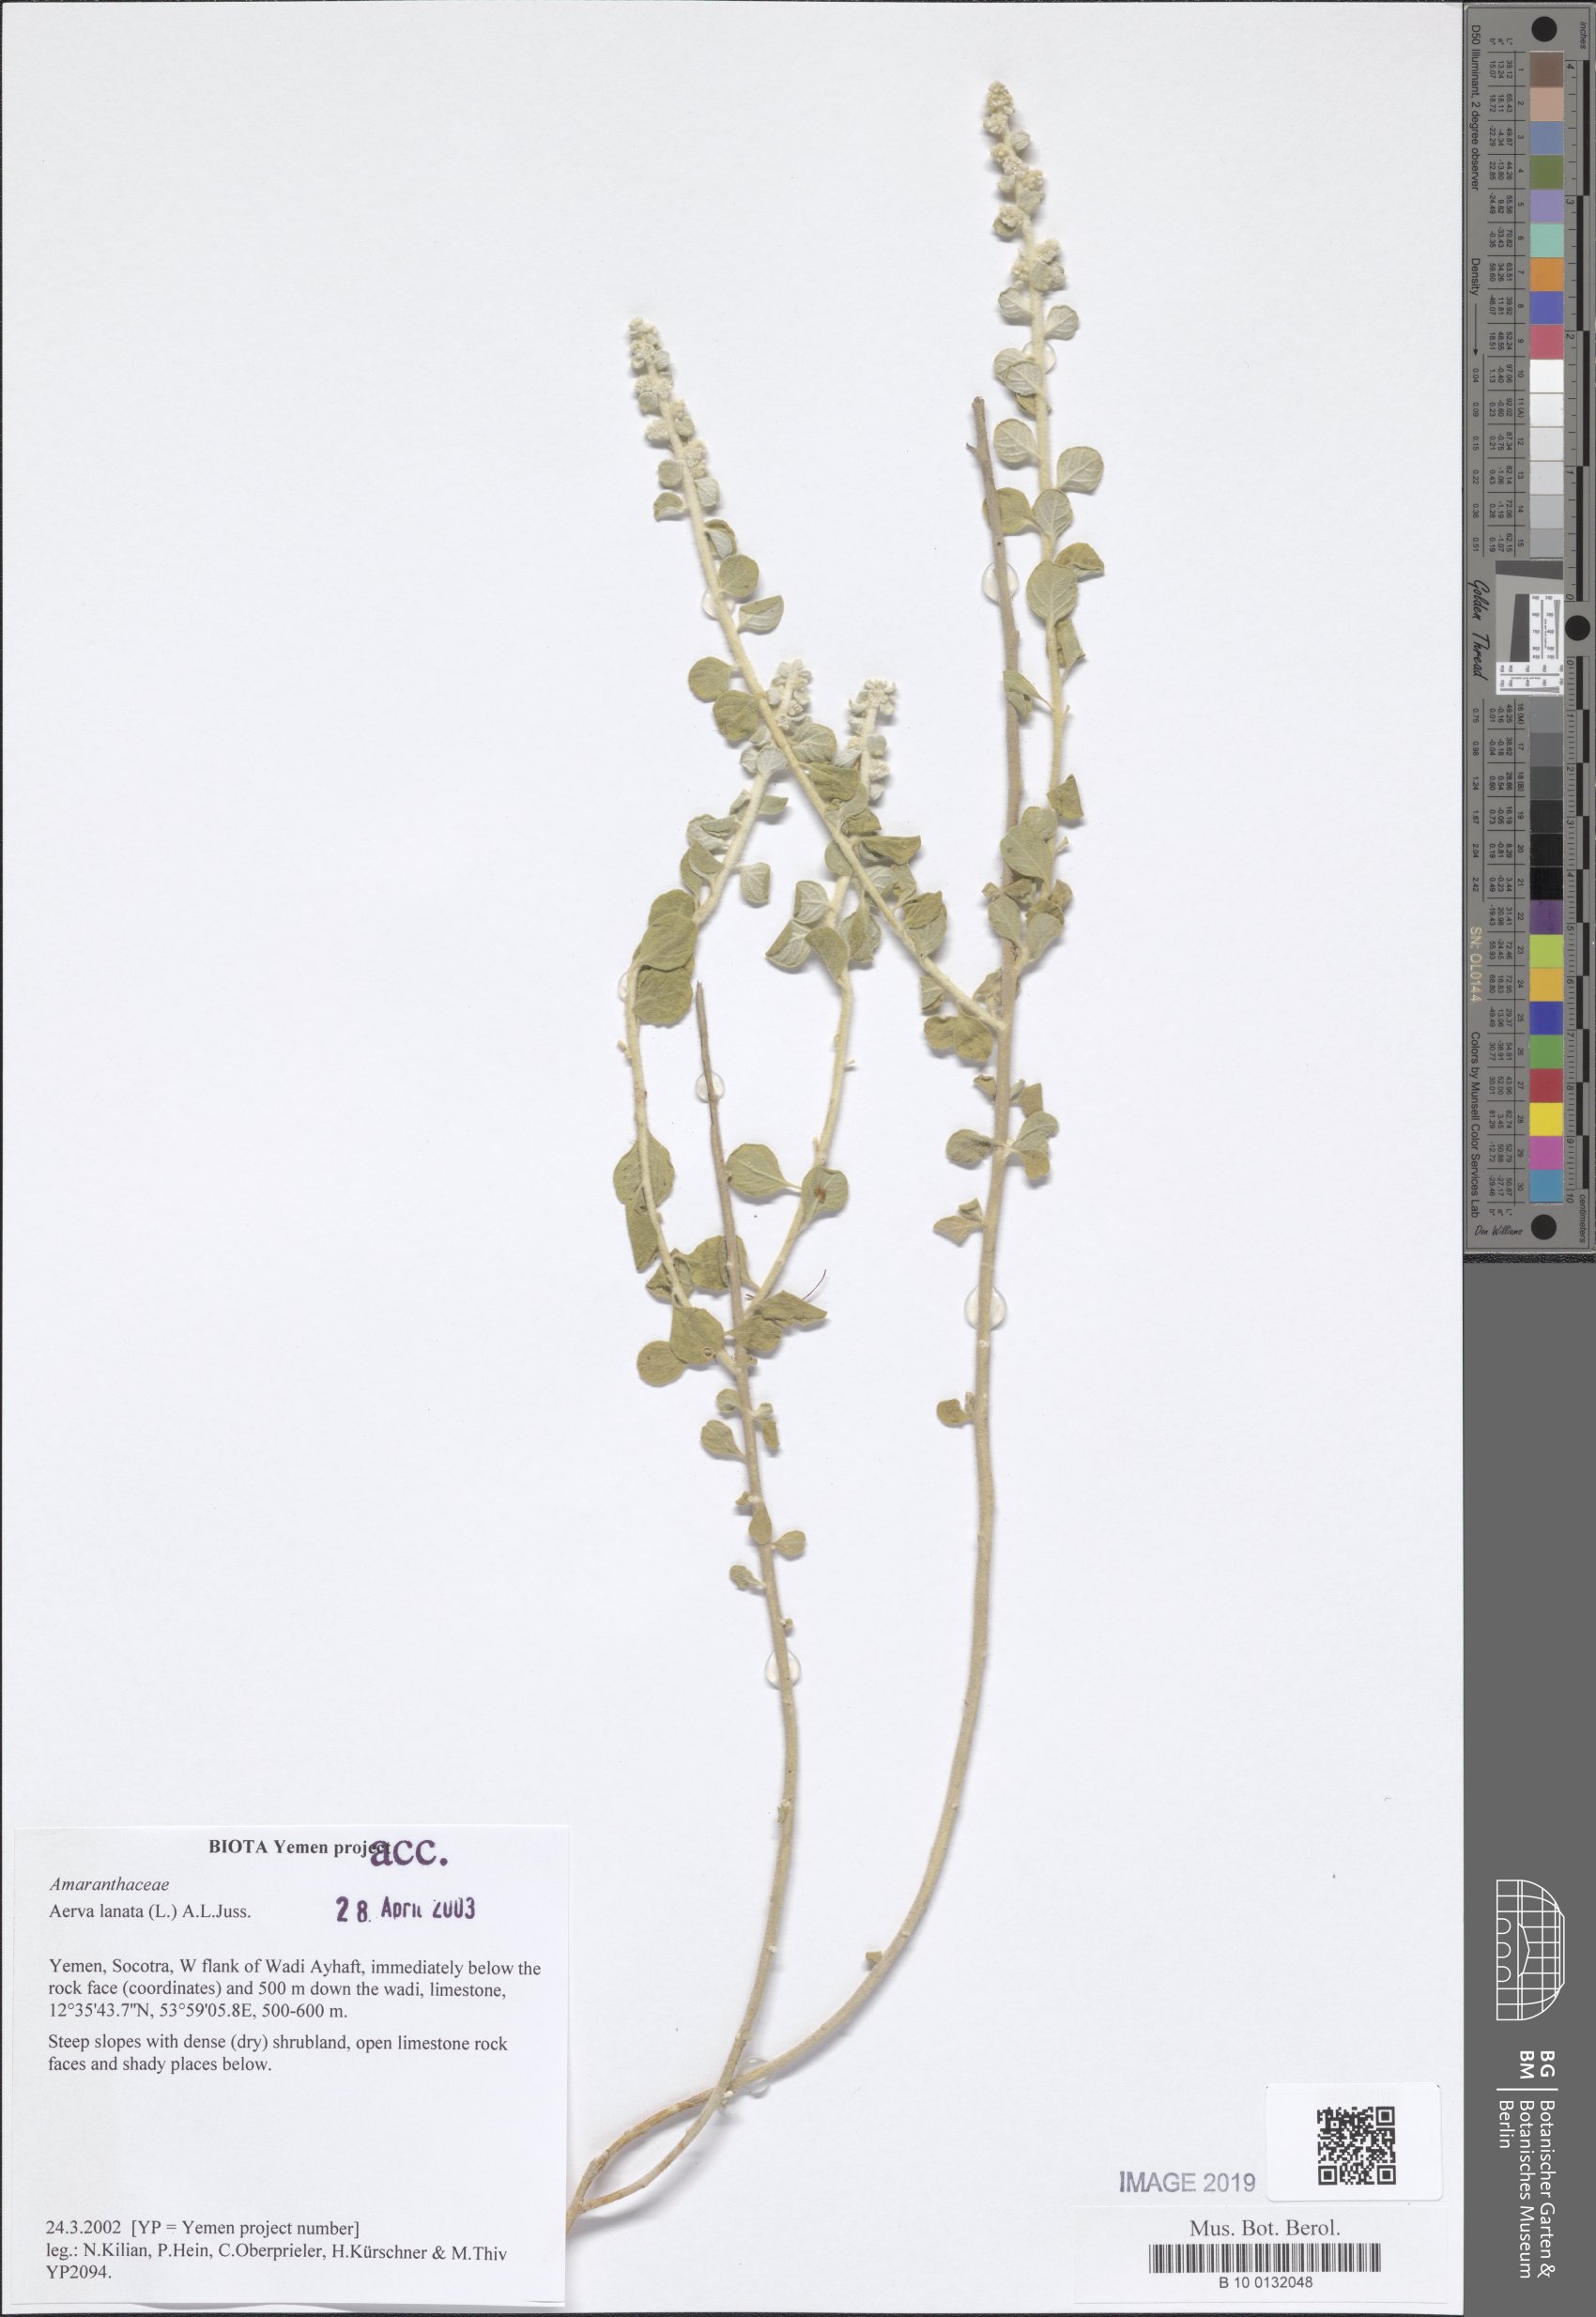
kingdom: Plantae
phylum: Tracheophyta
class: Magnoliopsida
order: Caryophyllales
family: Amaranthaceae
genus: Ouret
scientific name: Ouret lanata
